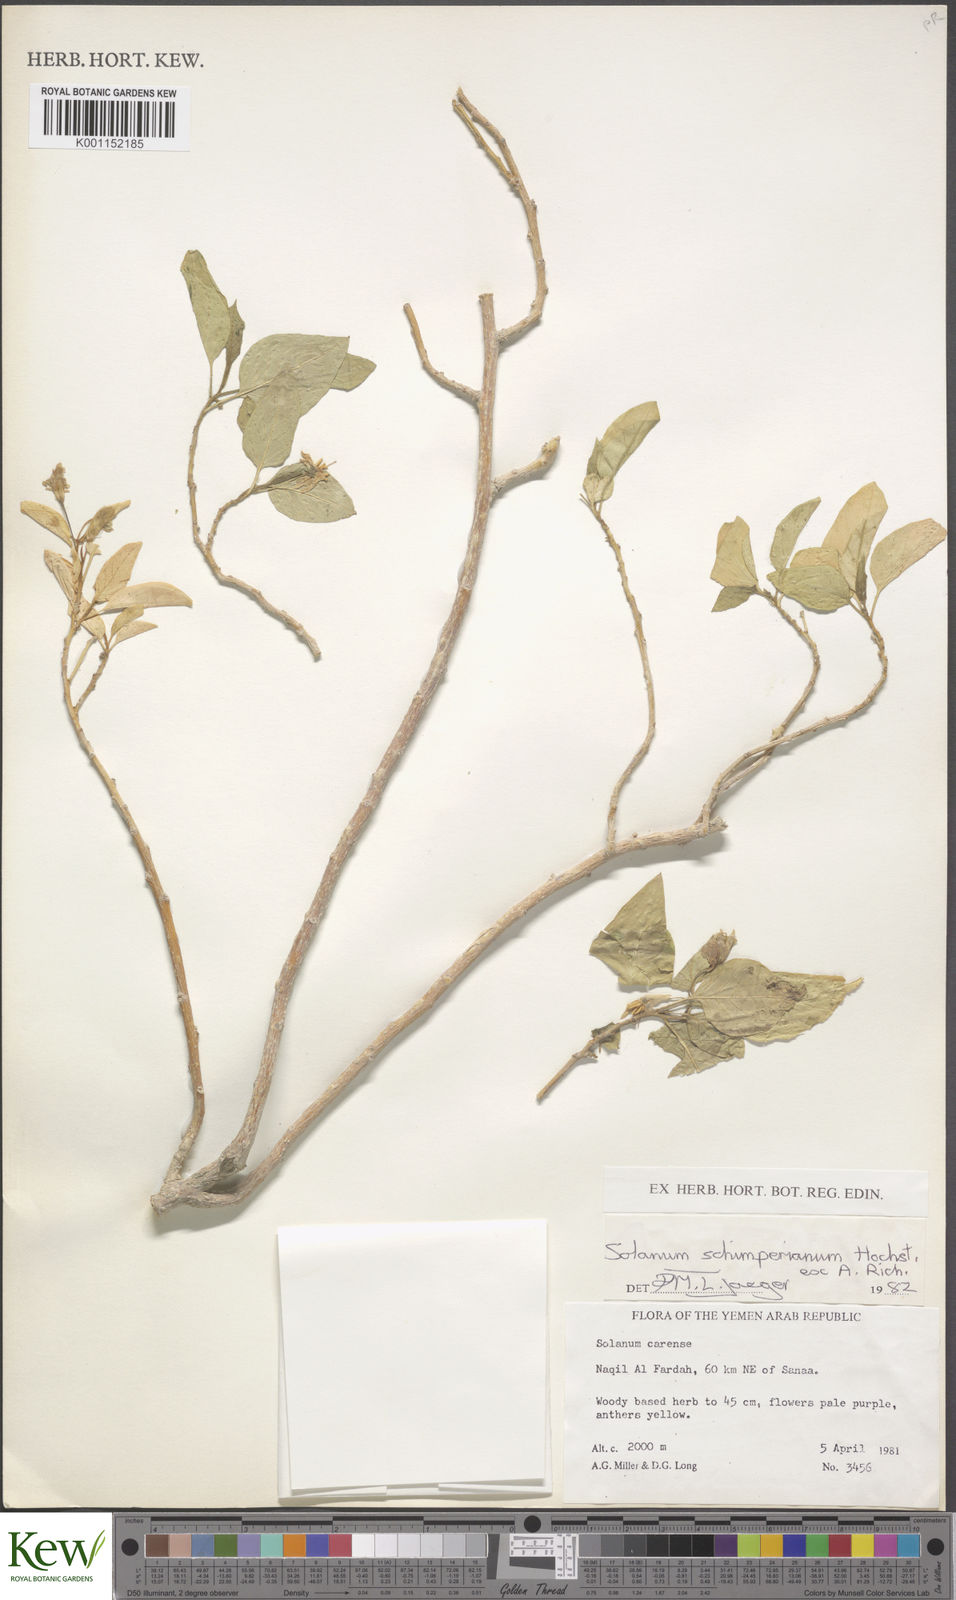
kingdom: Plantae
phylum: Tracheophyta
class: Magnoliopsida
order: Solanales
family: Solanaceae
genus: Solanum
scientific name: Solanum
